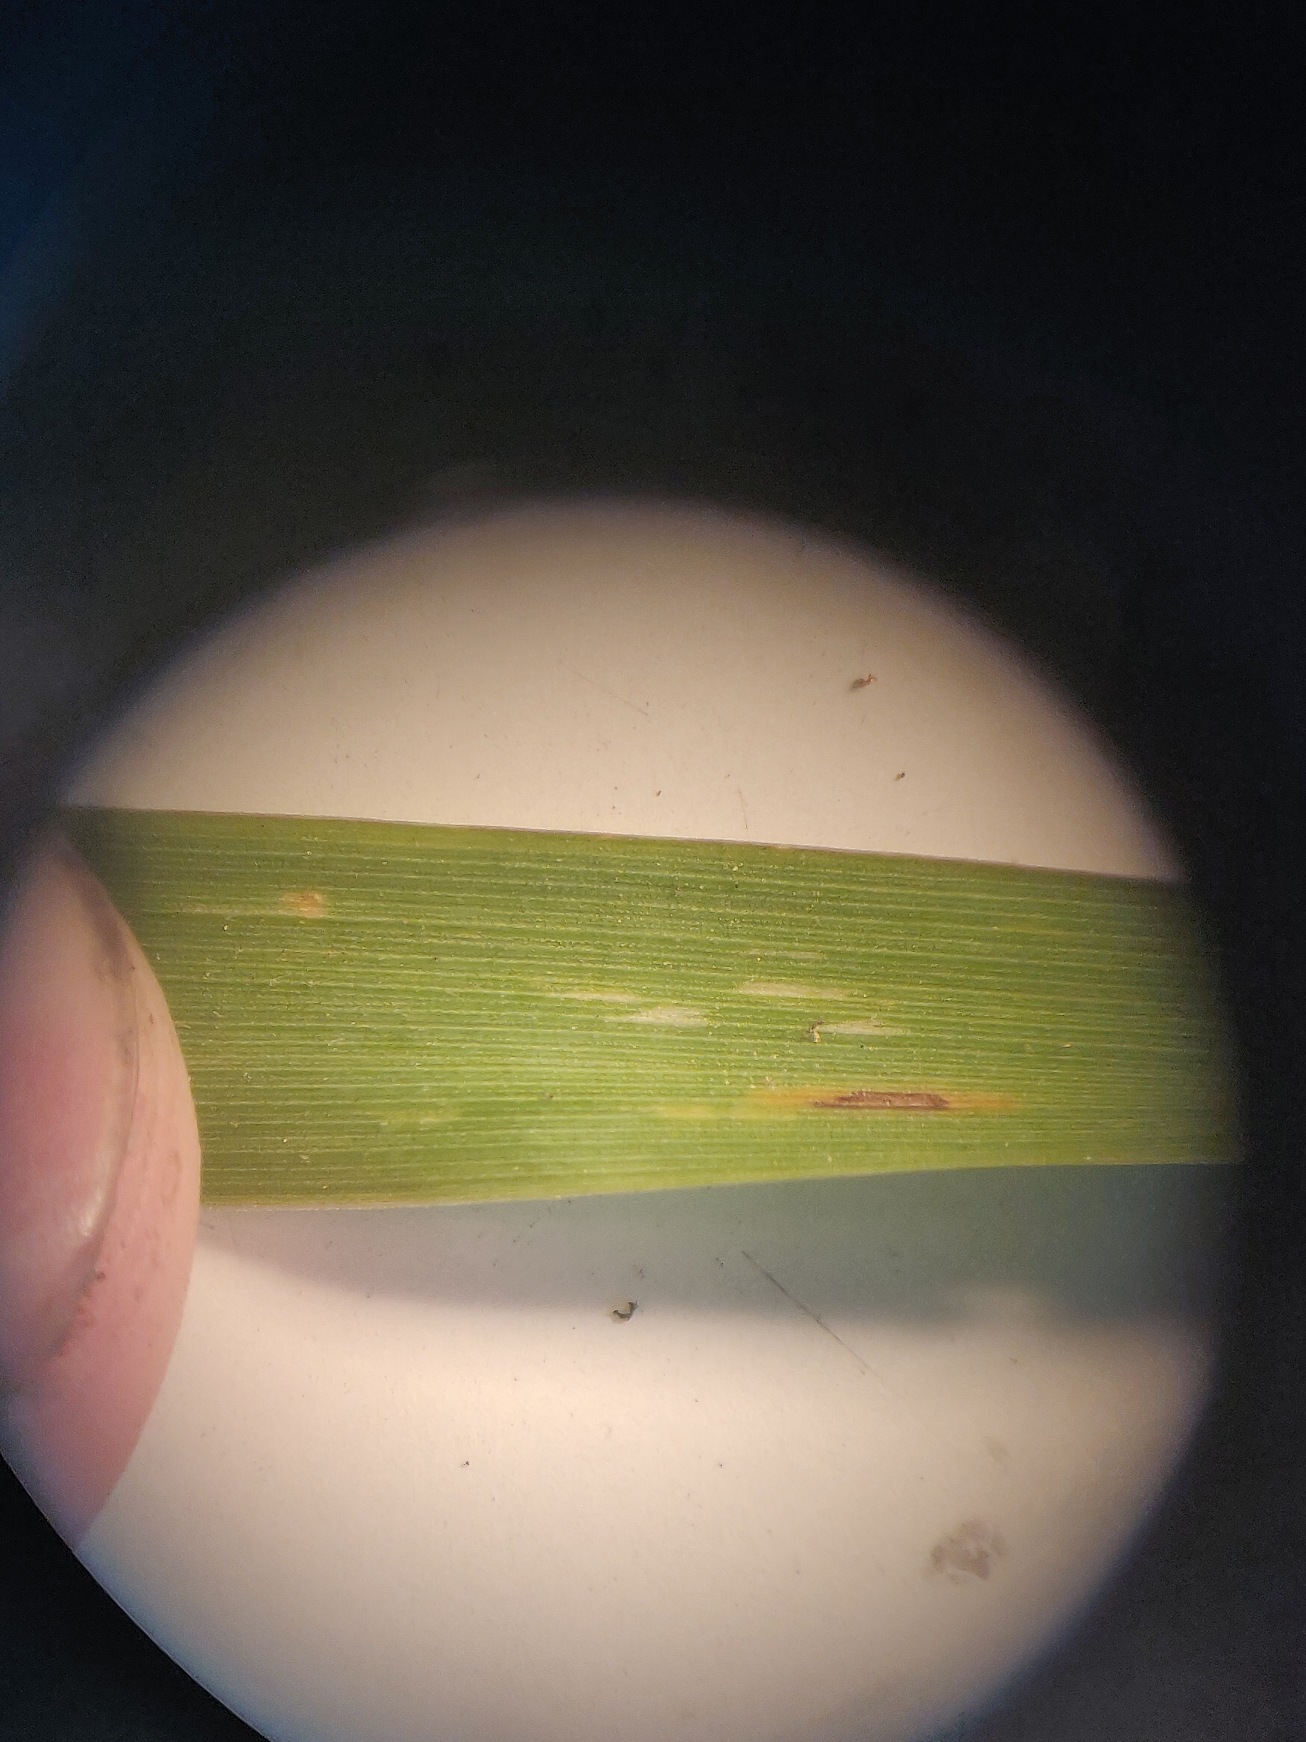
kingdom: Plantae
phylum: Tracheophyta
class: Liliopsida
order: Poales
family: Poaceae
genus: Elymus
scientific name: Elymus repens
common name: Almindelig kvik
